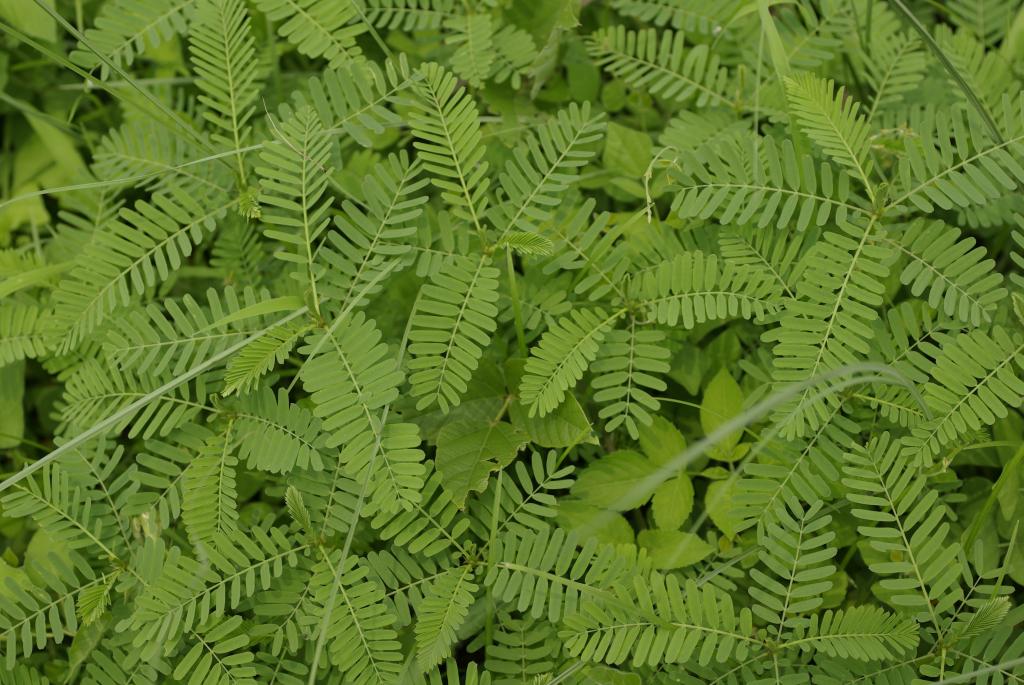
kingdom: Plantae
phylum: Tracheophyta
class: Magnoliopsida
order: Fabales
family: Fabaceae
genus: Sesbania
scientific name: Sesbania cannabina
